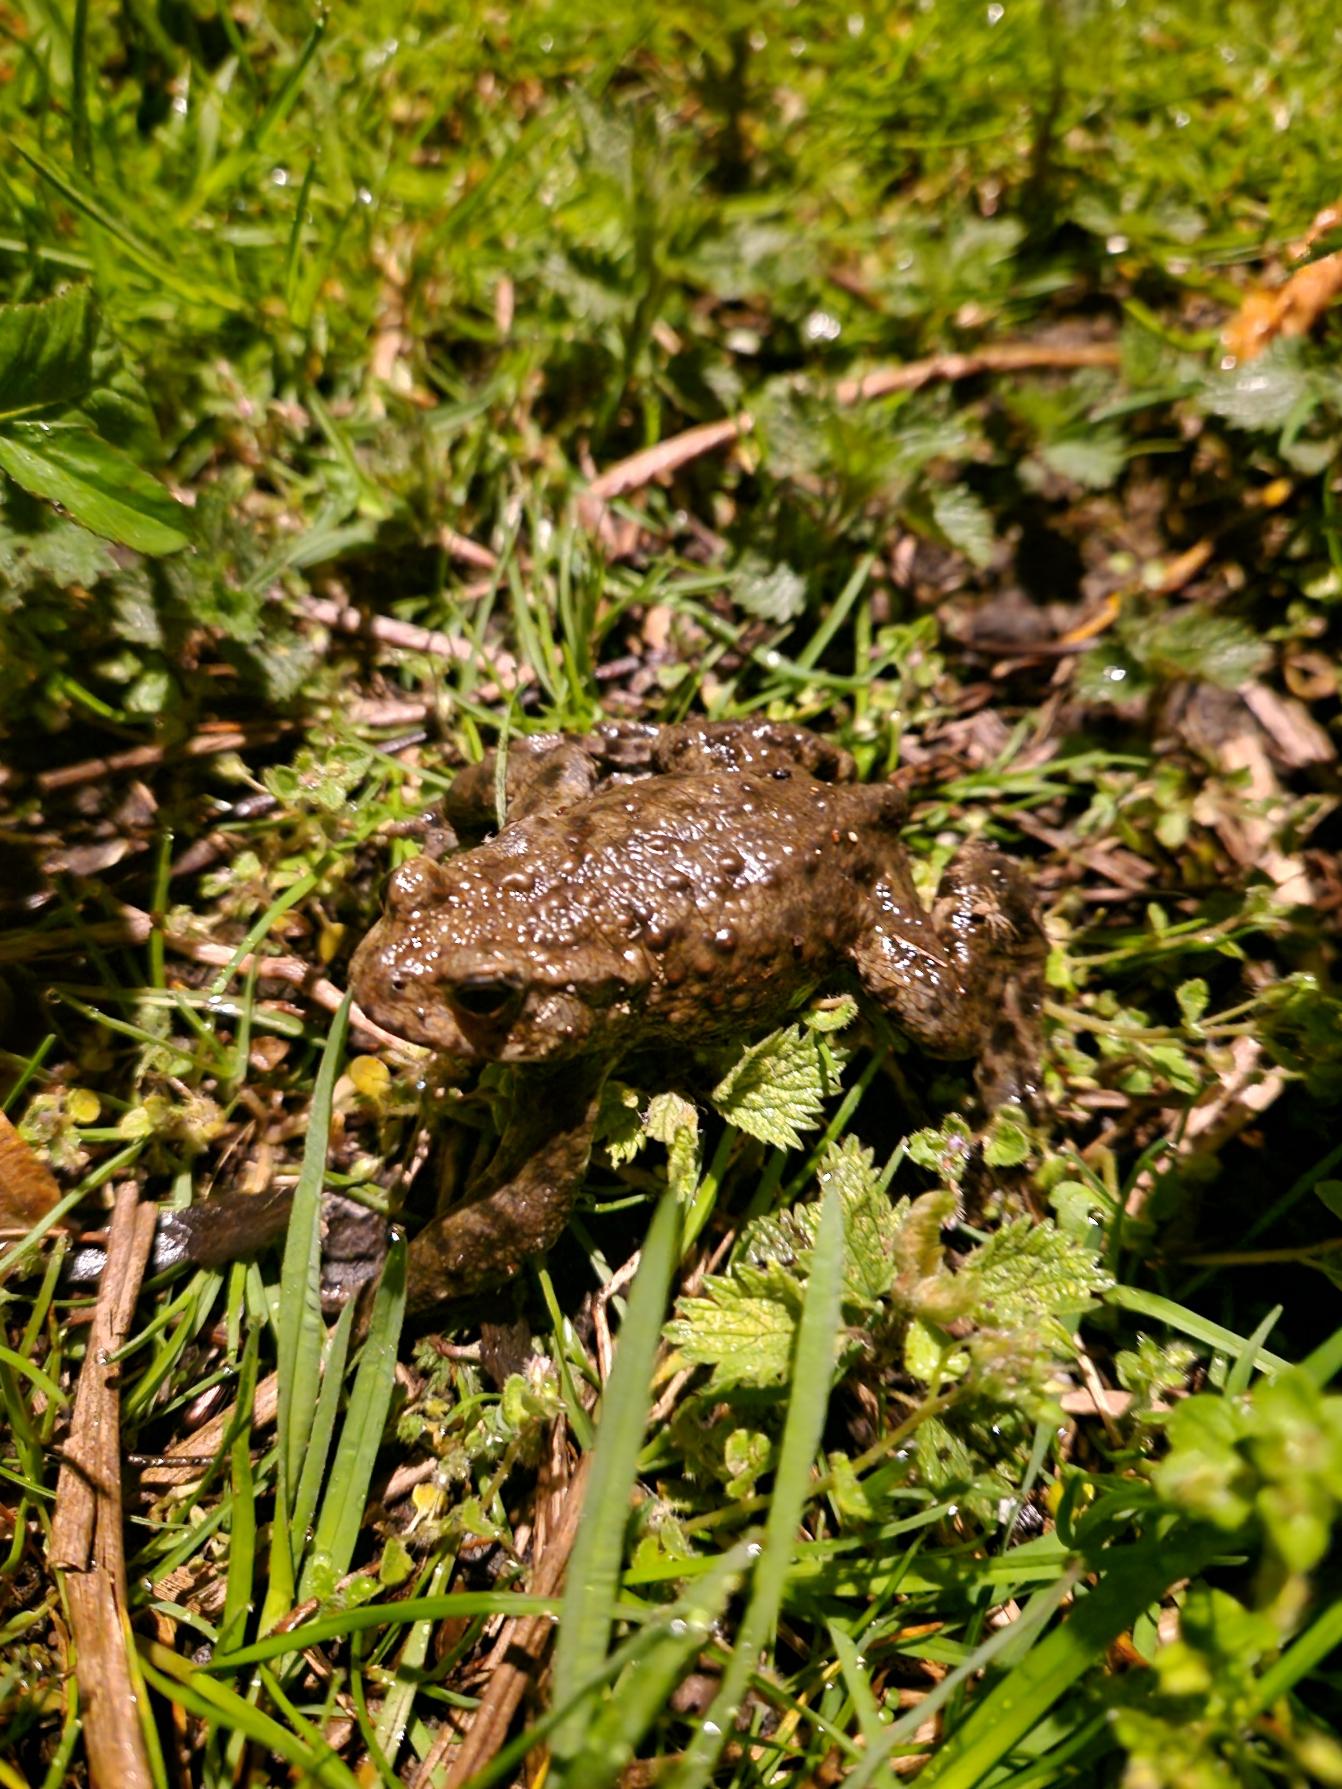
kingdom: Animalia
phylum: Chordata
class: Amphibia
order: Anura
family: Bufonidae
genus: Bufo
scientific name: Bufo bufo
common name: Skrubtudse
